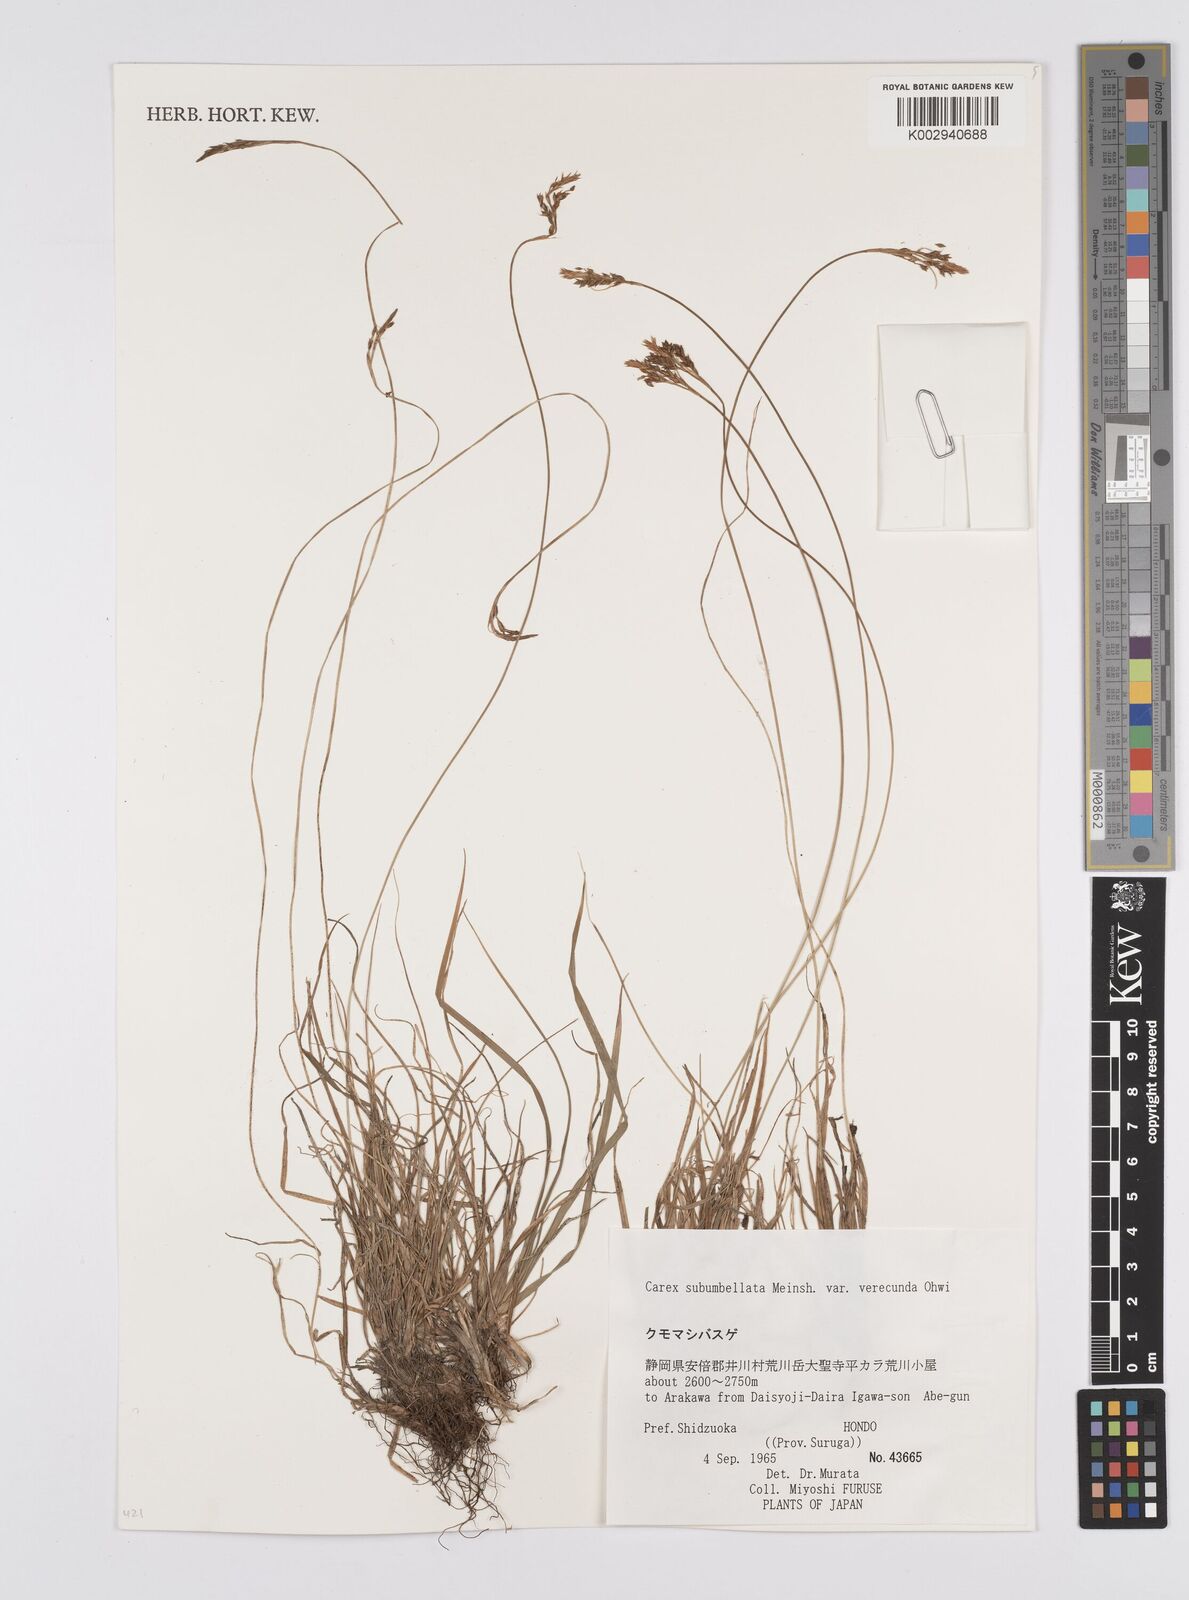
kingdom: Plantae
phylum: Tracheophyta
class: Liliopsida
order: Poales
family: Cyperaceae
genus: Carex
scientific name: Carex subumbellata
